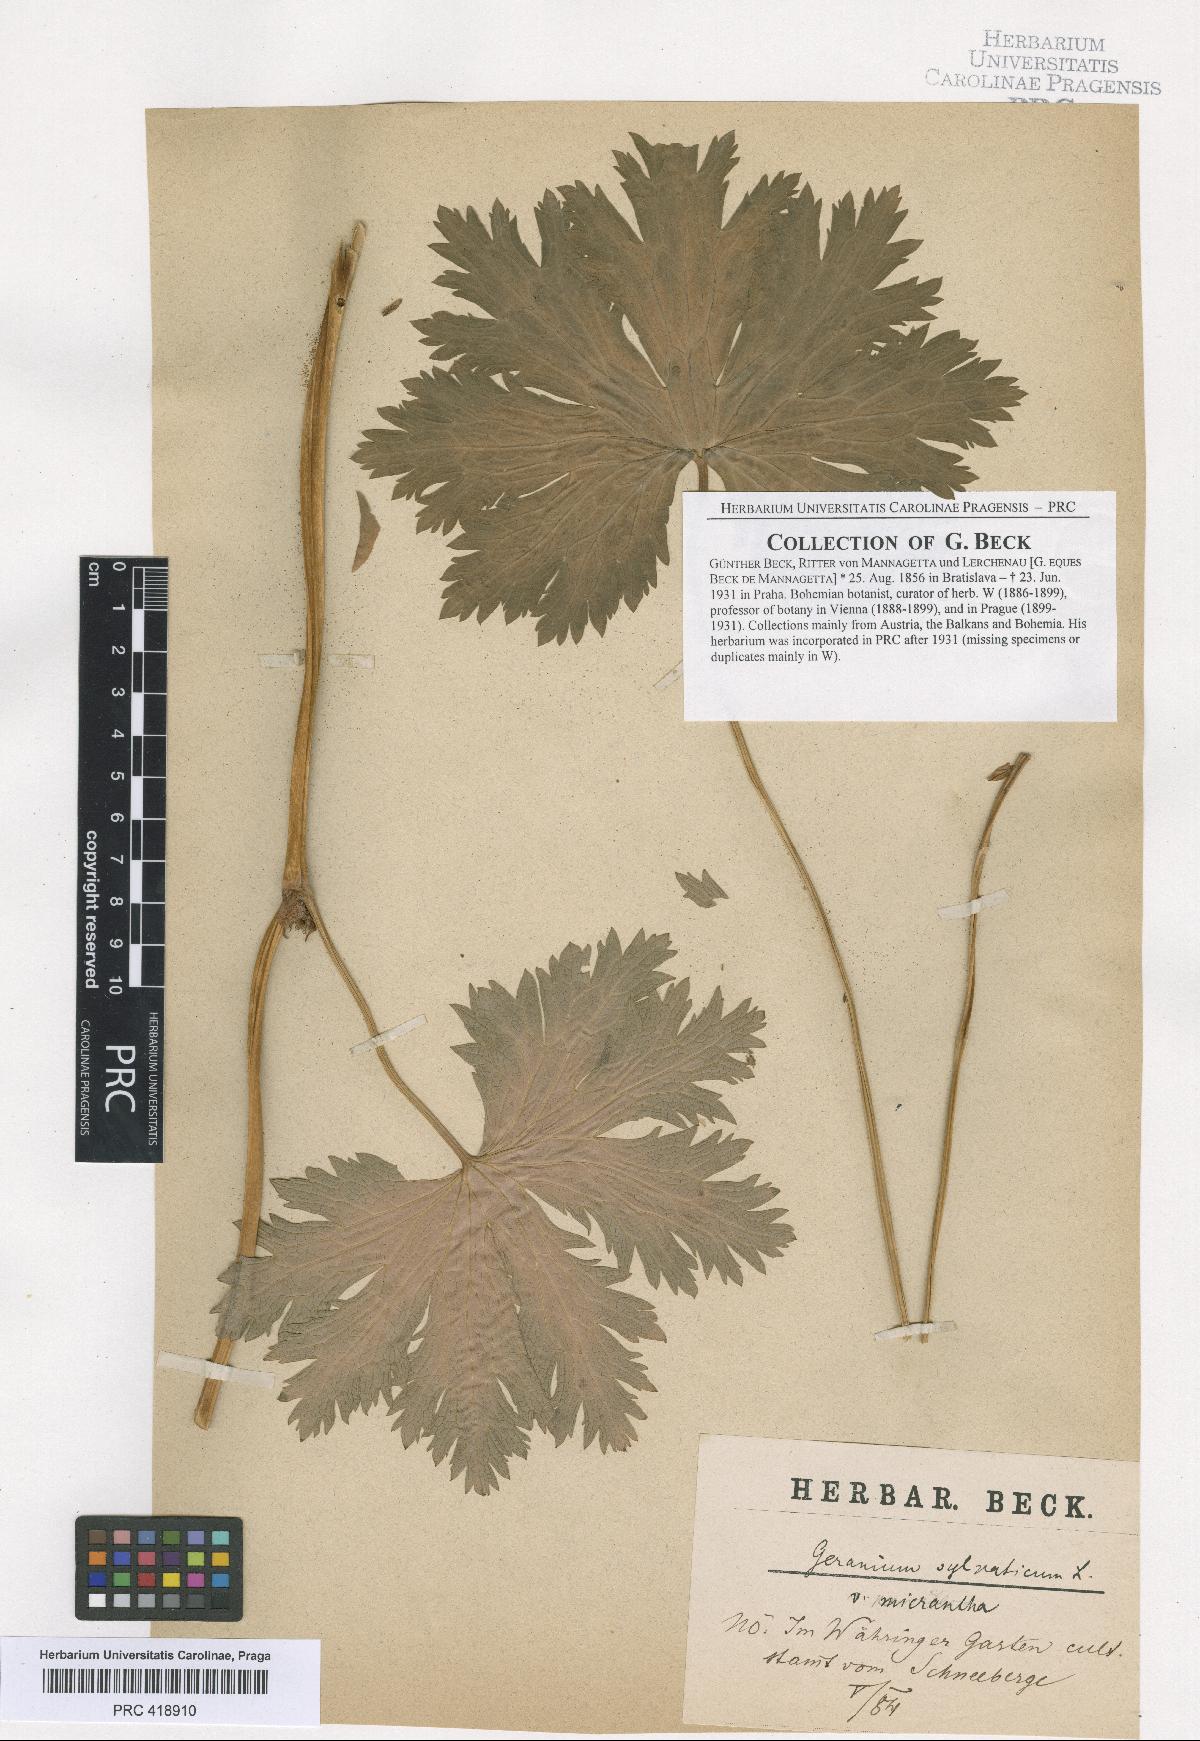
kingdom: Plantae
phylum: Tracheophyta
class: Magnoliopsida
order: Geraniales
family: Geraniaceae
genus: Geranium
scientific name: Geranium sylvaticum
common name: Wood crane's-bill
